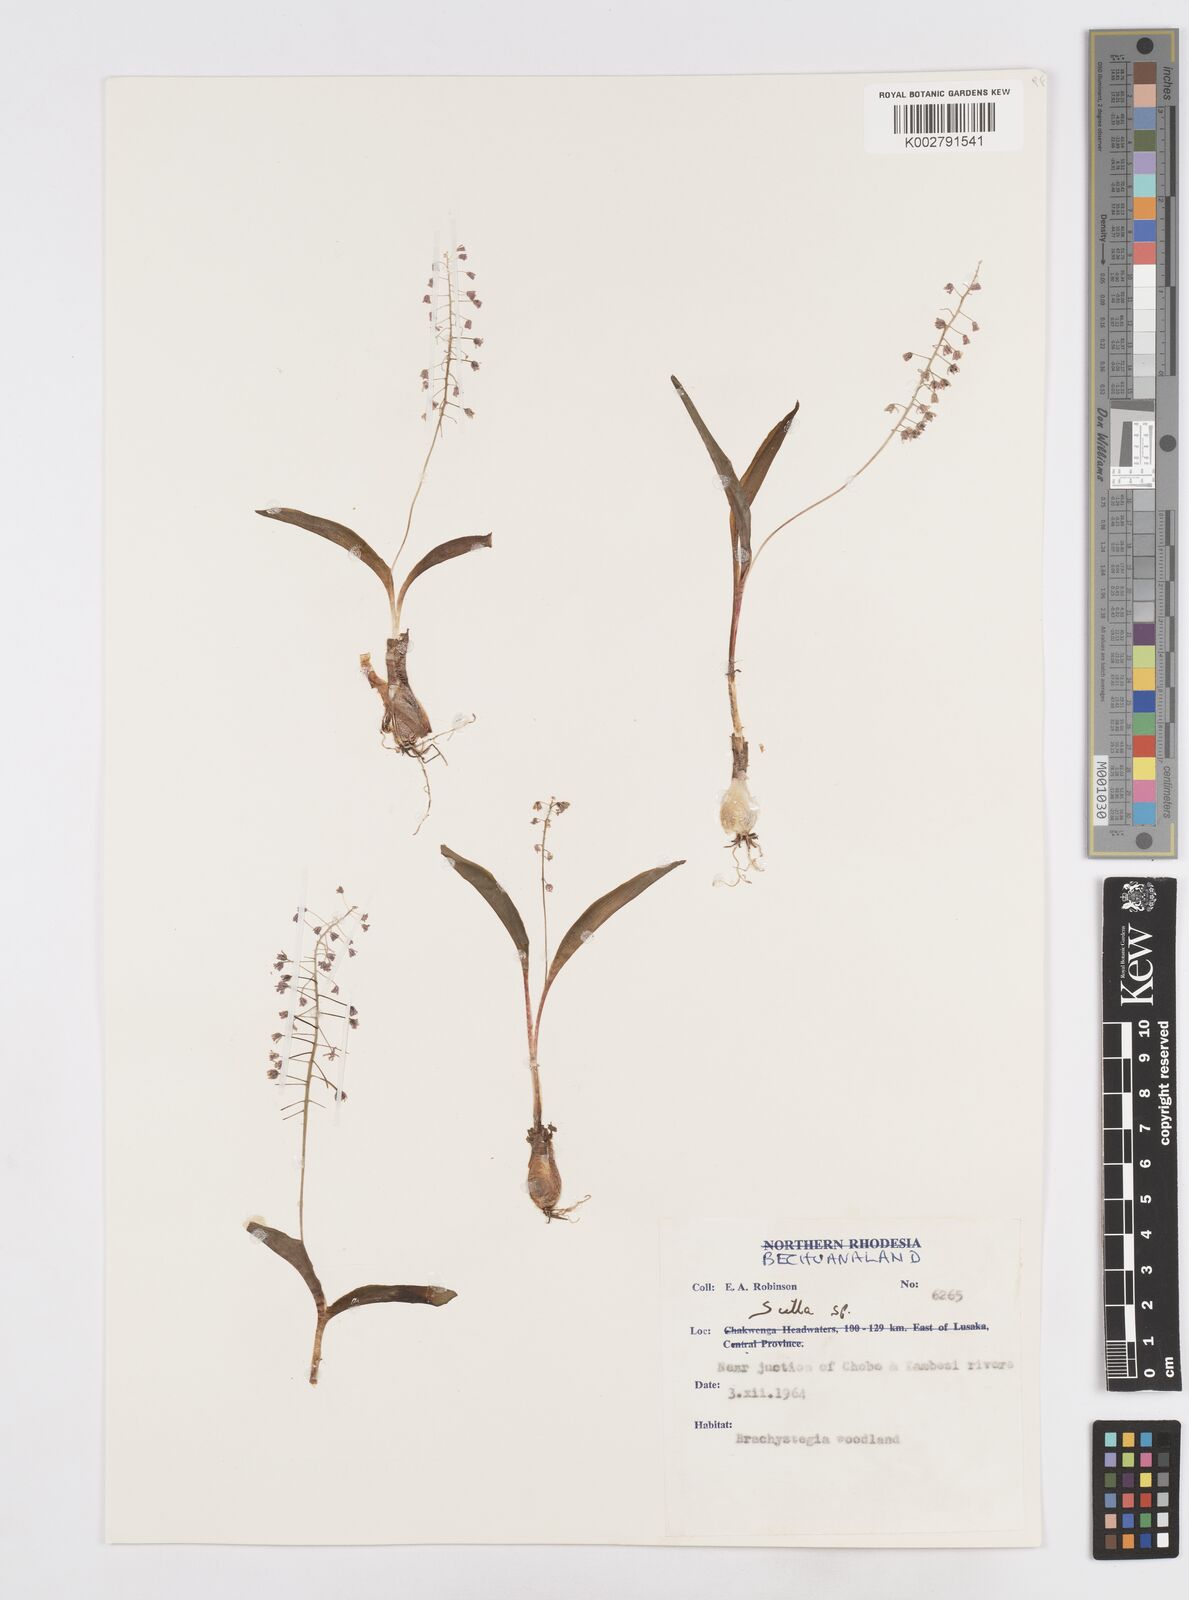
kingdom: Plantae
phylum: Tracheophyta
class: Liliopsida
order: Asparagales
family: Asparagaceae
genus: Scilla
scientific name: Scilla
